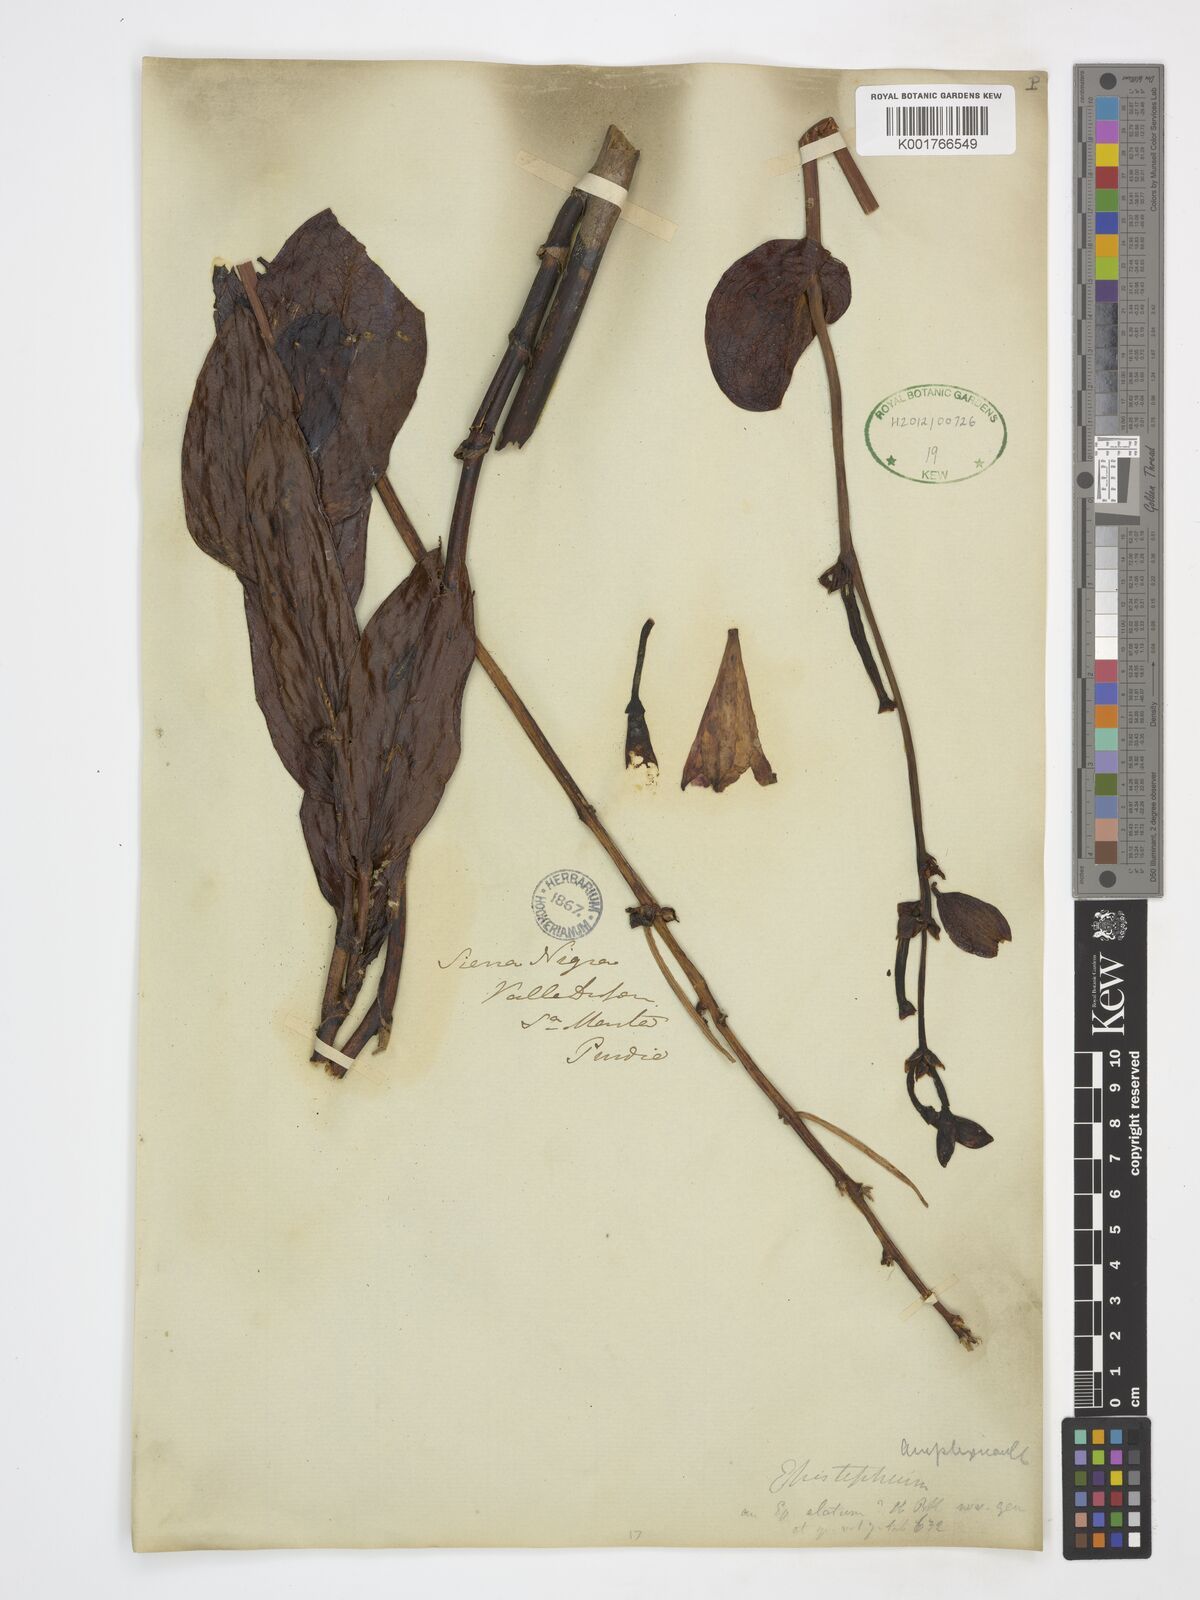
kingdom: Plantae
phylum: Tracheophyta
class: Liliopsida
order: Asparagales
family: Orchidaceae
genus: Epistephium
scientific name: Epistephium amplexicaule
